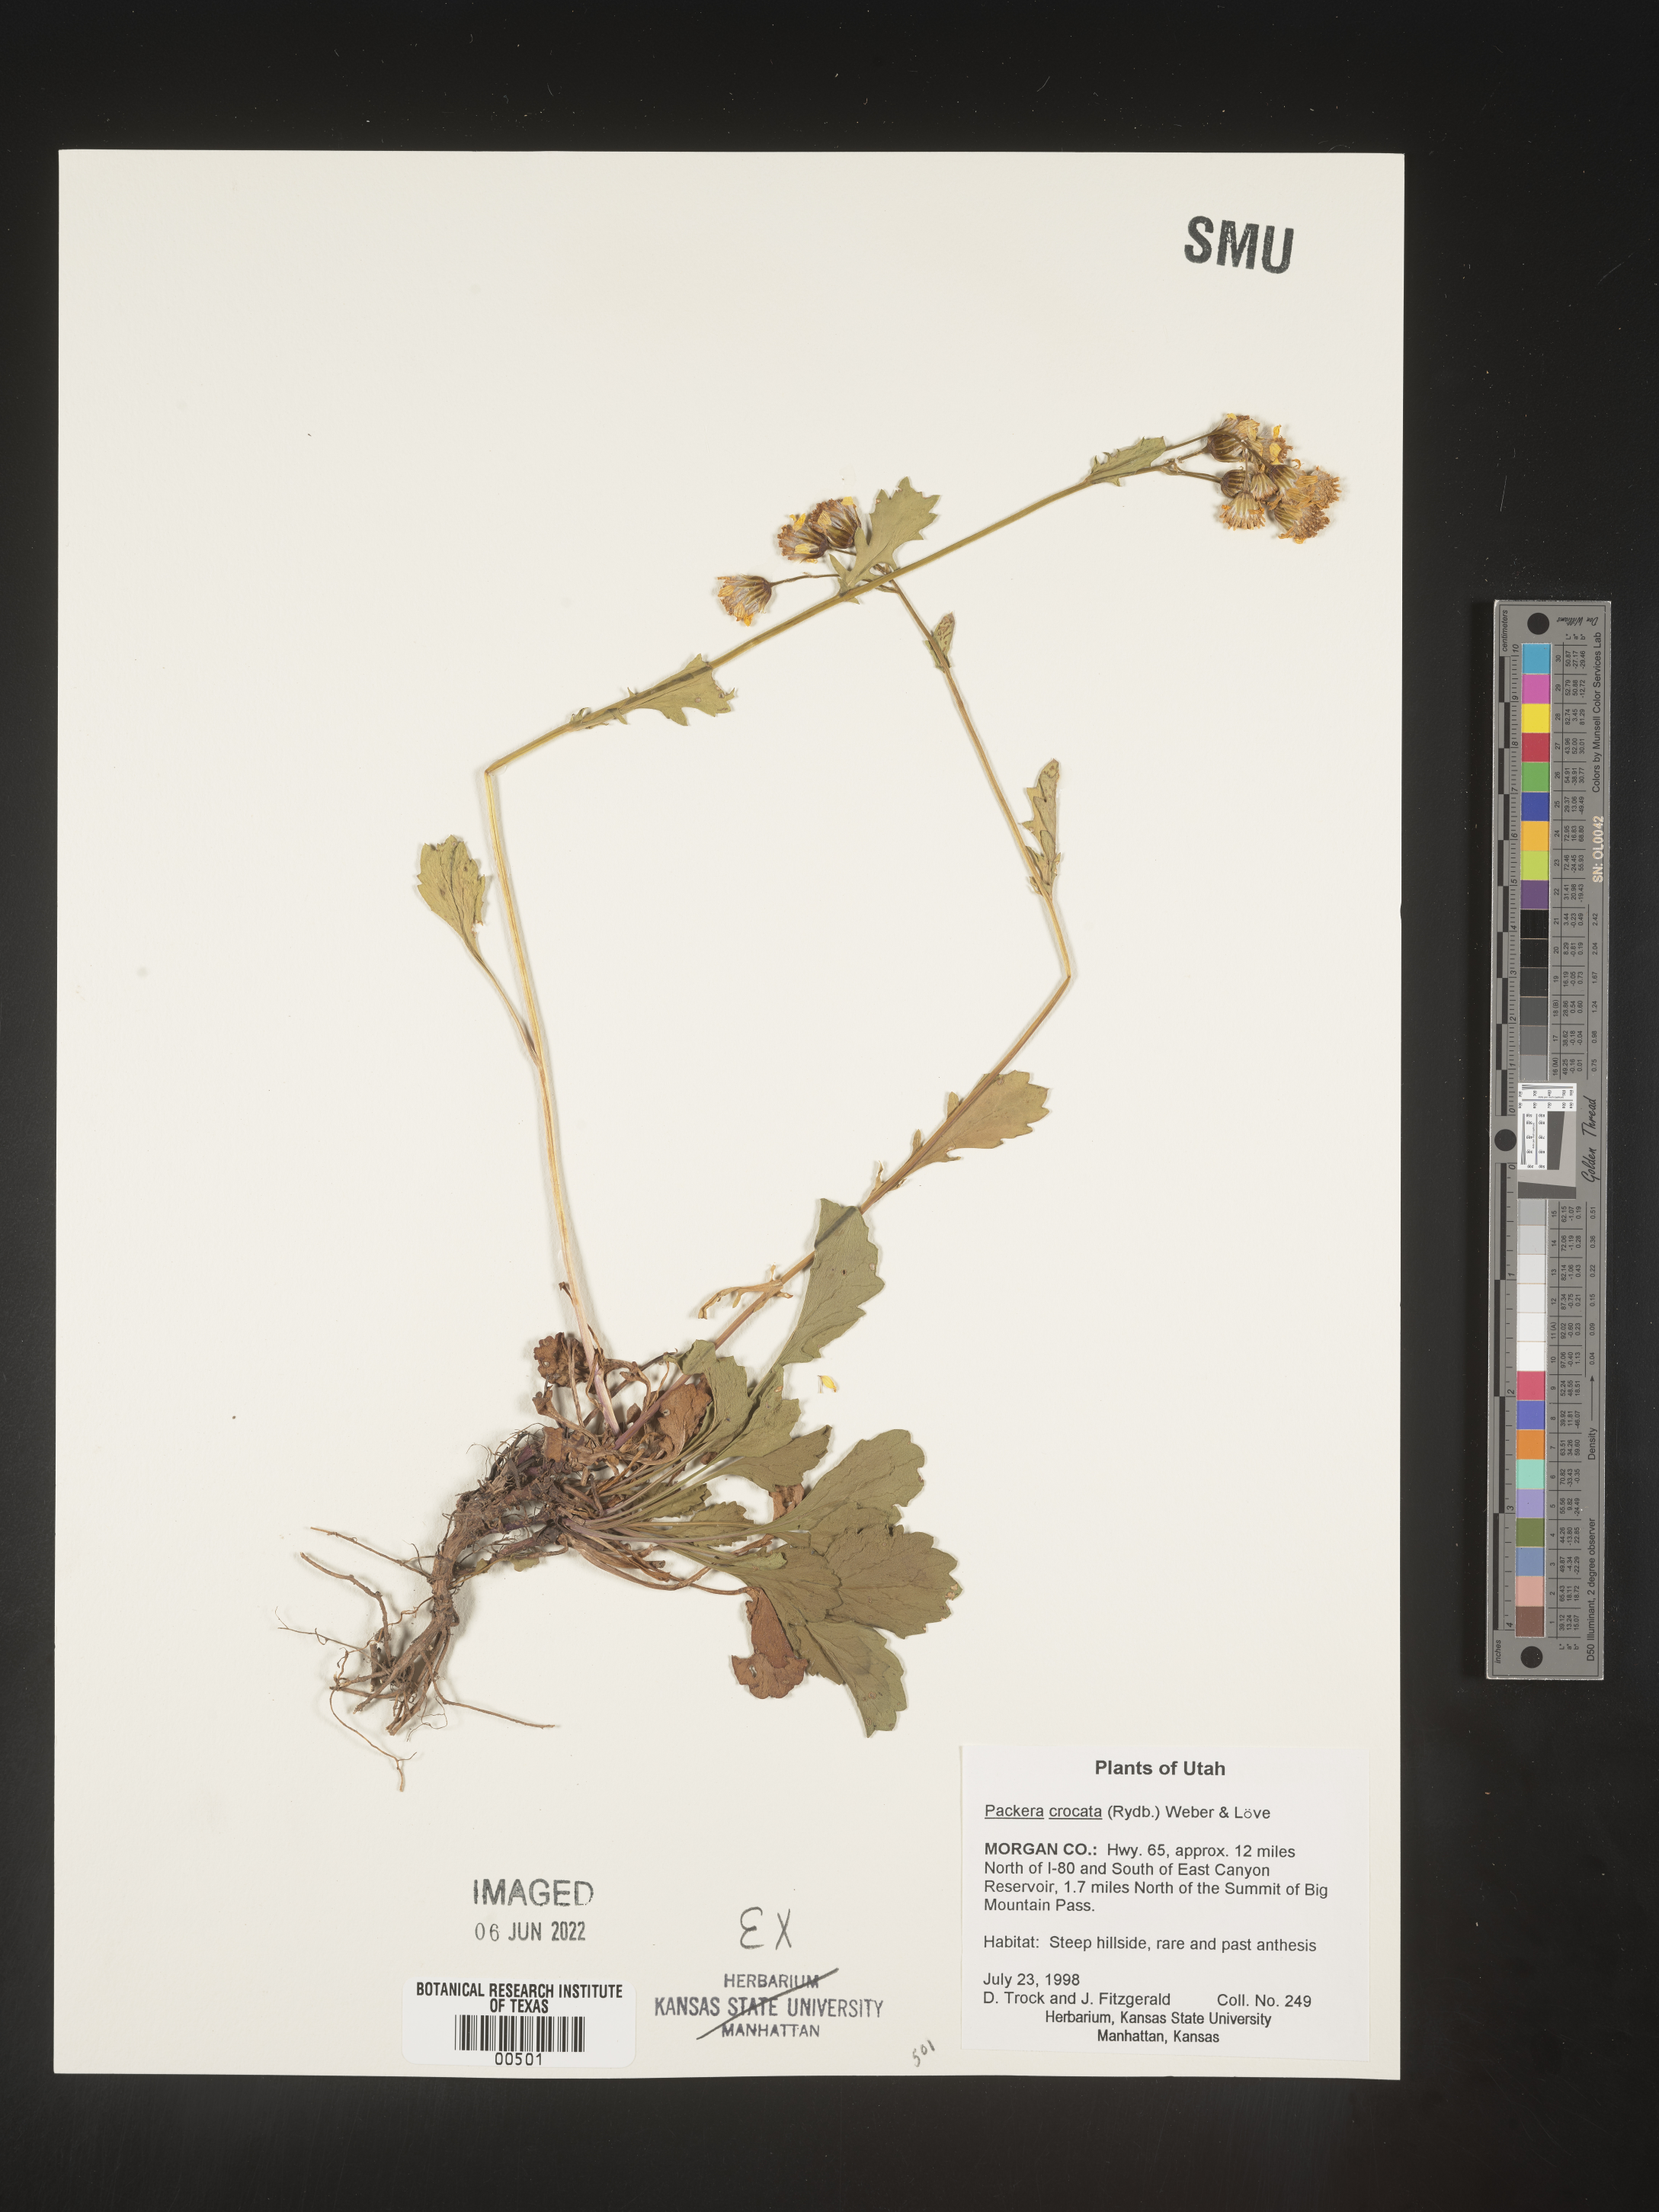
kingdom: Plantae
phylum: Tracheophyta
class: Magnoliopsida
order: Asterales
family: Asteraceae
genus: Packera
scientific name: Packera
